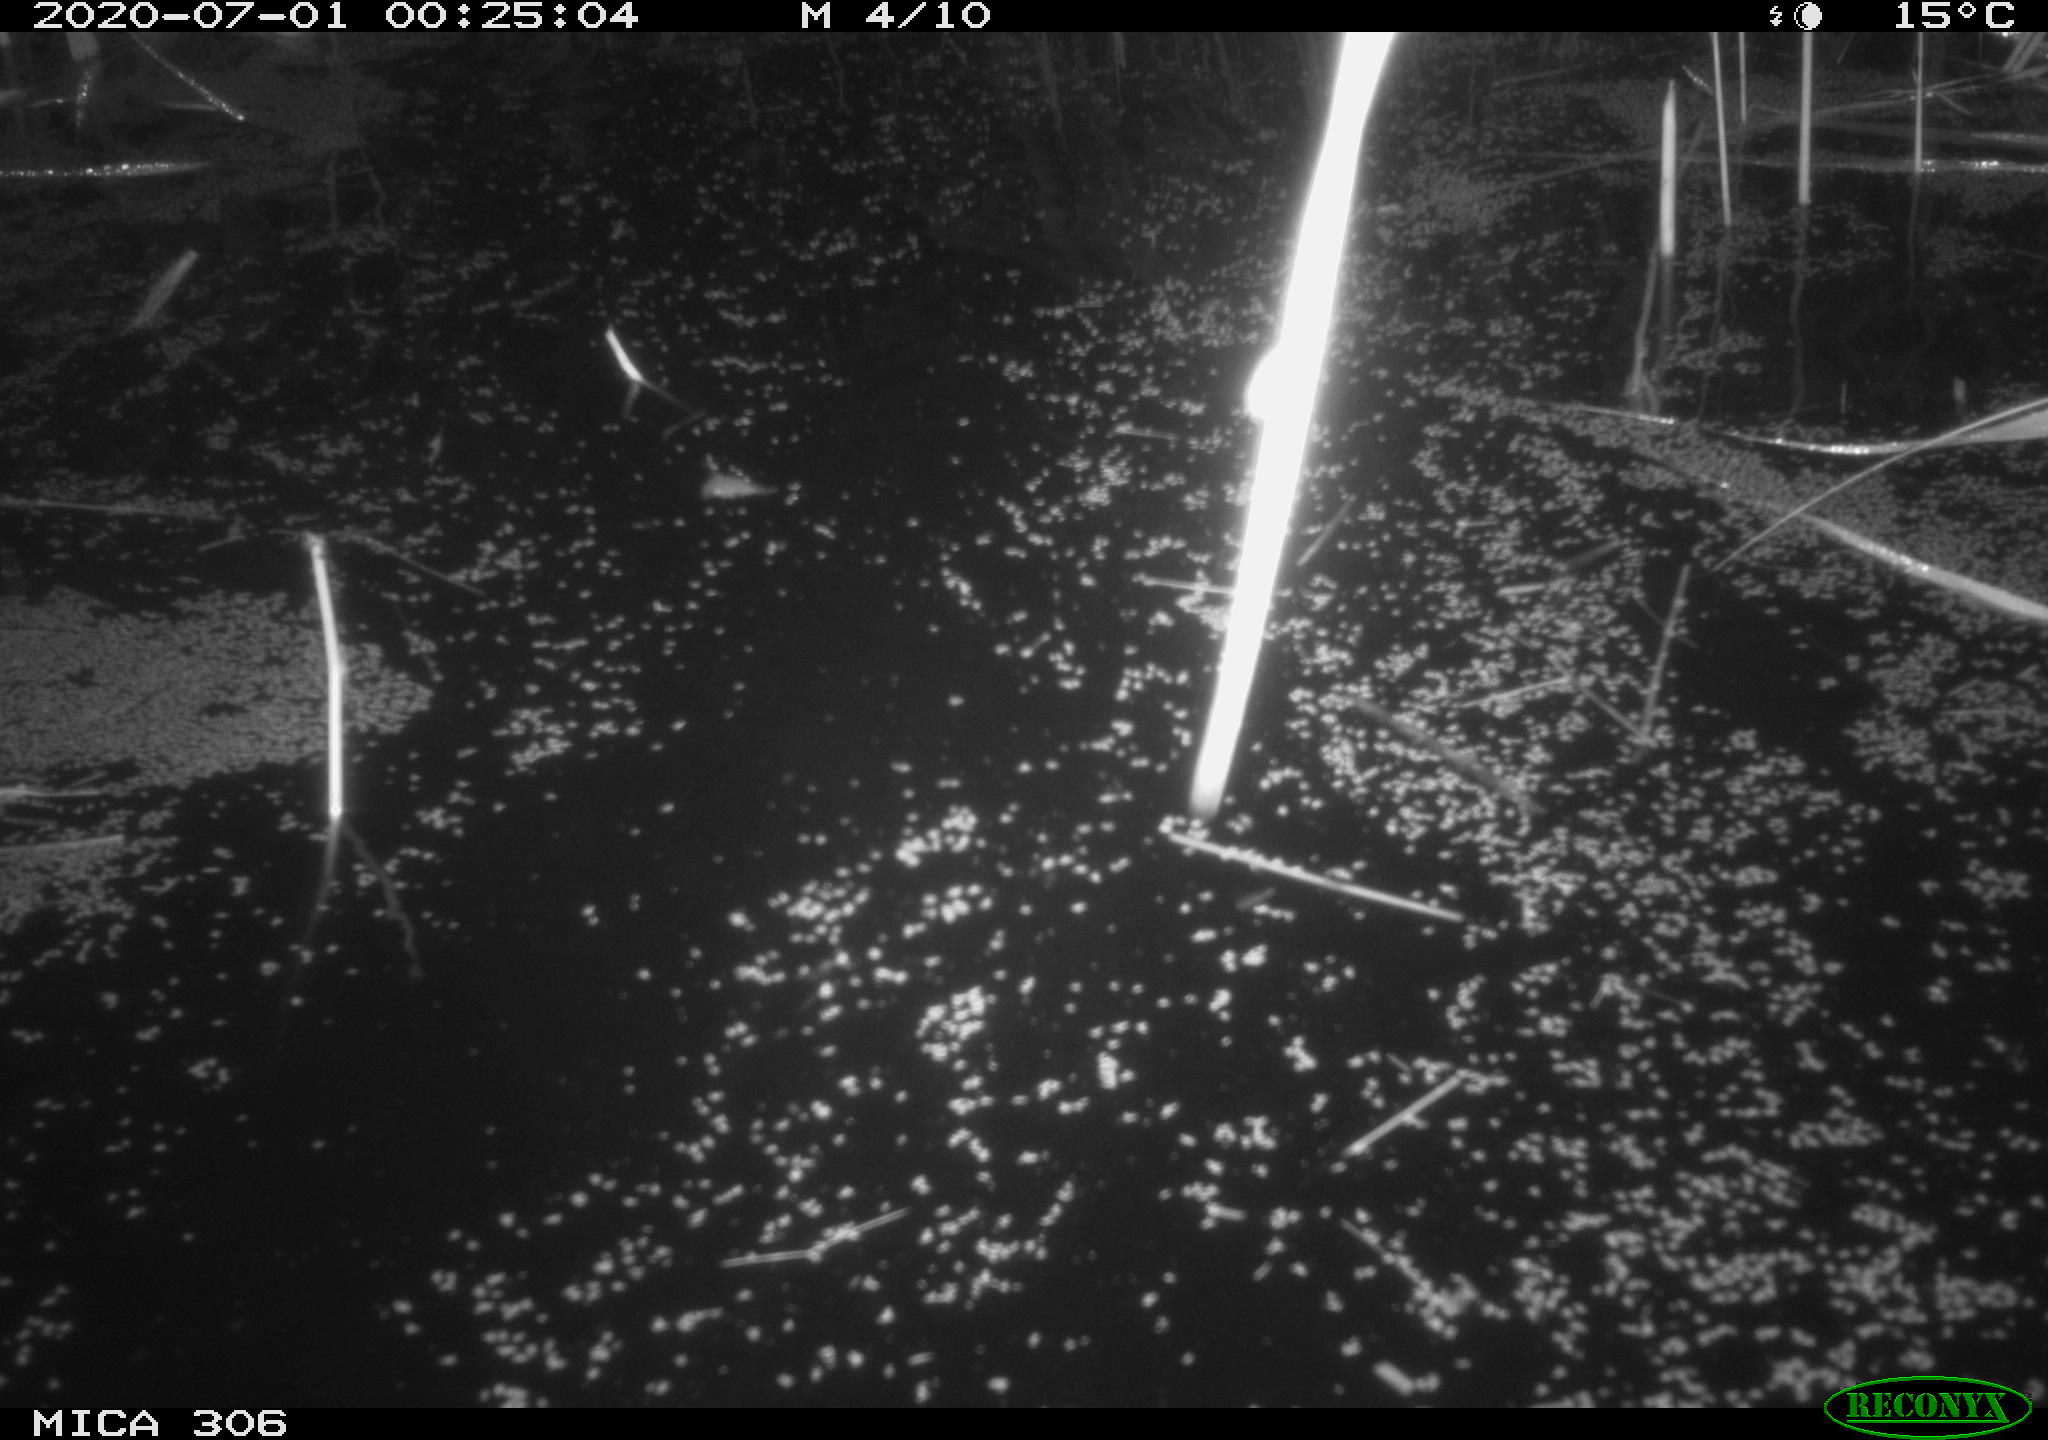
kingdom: Animalia
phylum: Chordata
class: Mammalia
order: Rodentia
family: Muridae
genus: Rattus
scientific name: Rattus norvegicus
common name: Brown rat
